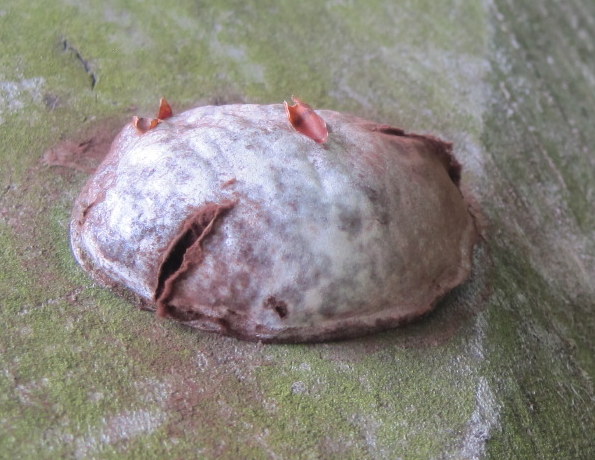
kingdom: Protozoa
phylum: Mycetozoa
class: Myxomycetes
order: Cribrariales
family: Tubiferaceae
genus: Reticularia
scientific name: Reticularia lycoperdon
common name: skinnende støvpude
